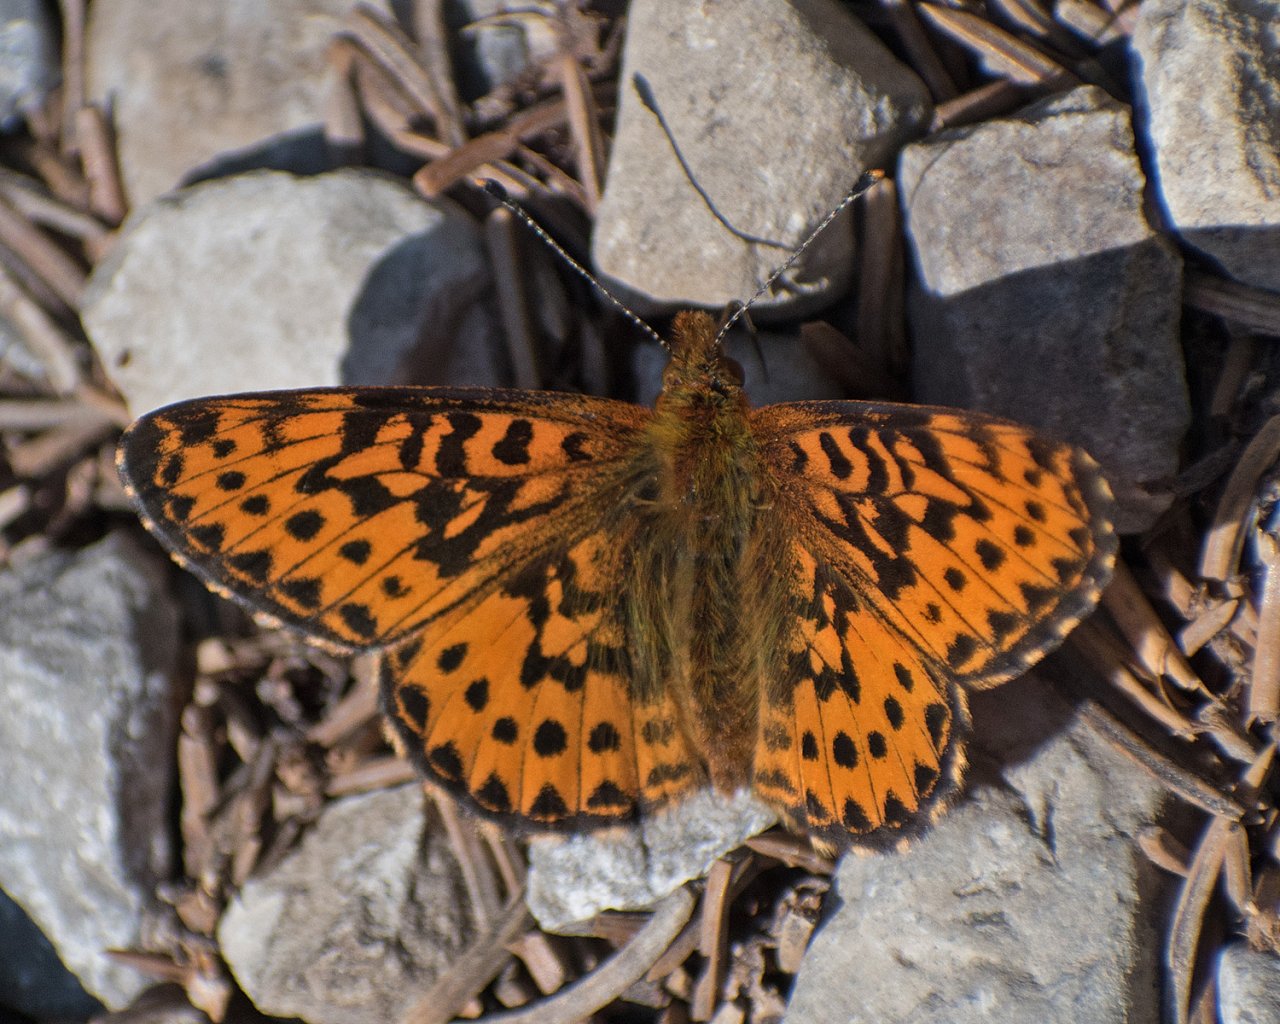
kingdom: Animalia
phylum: Arthropoda
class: Insecta
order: Lepidoptera
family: Nymphalidae
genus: Boloria
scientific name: Boloria chariclea
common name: Arctic Fritillary
